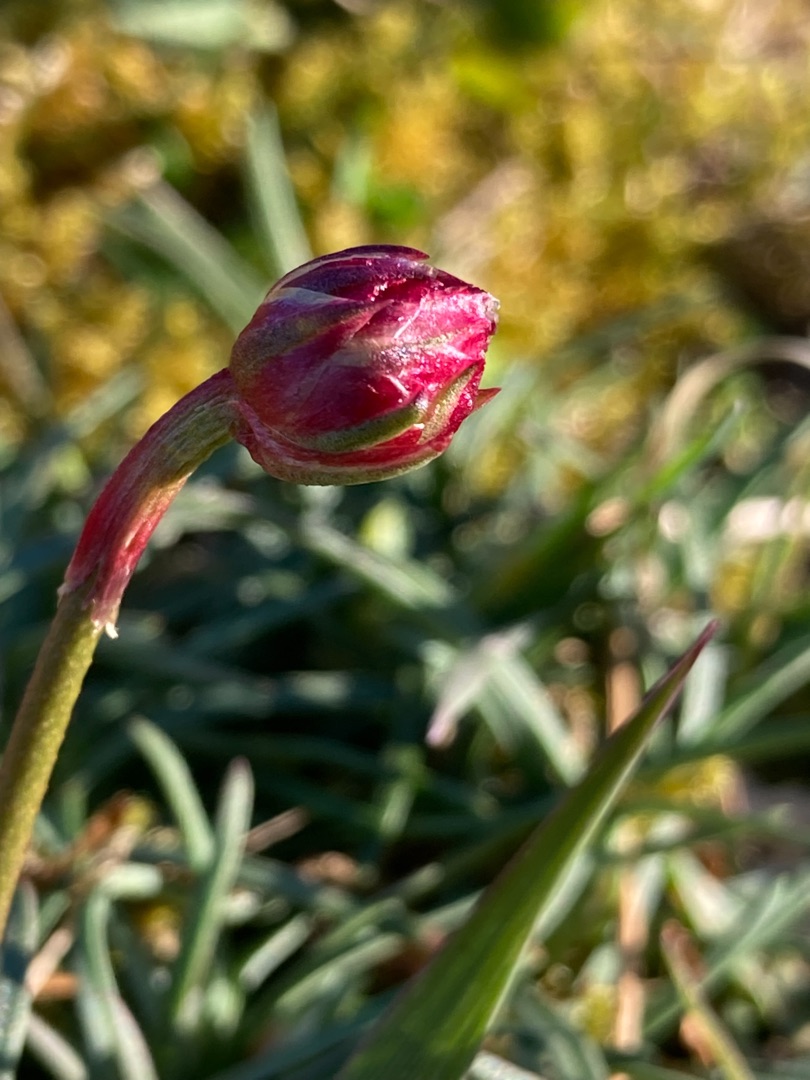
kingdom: Plantae
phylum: Tracheophyta
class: Magnoliopsida
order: Caryophyllales
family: Plumbaginaceae
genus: Armeria
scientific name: Armeria maritima
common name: Engelskgræs
